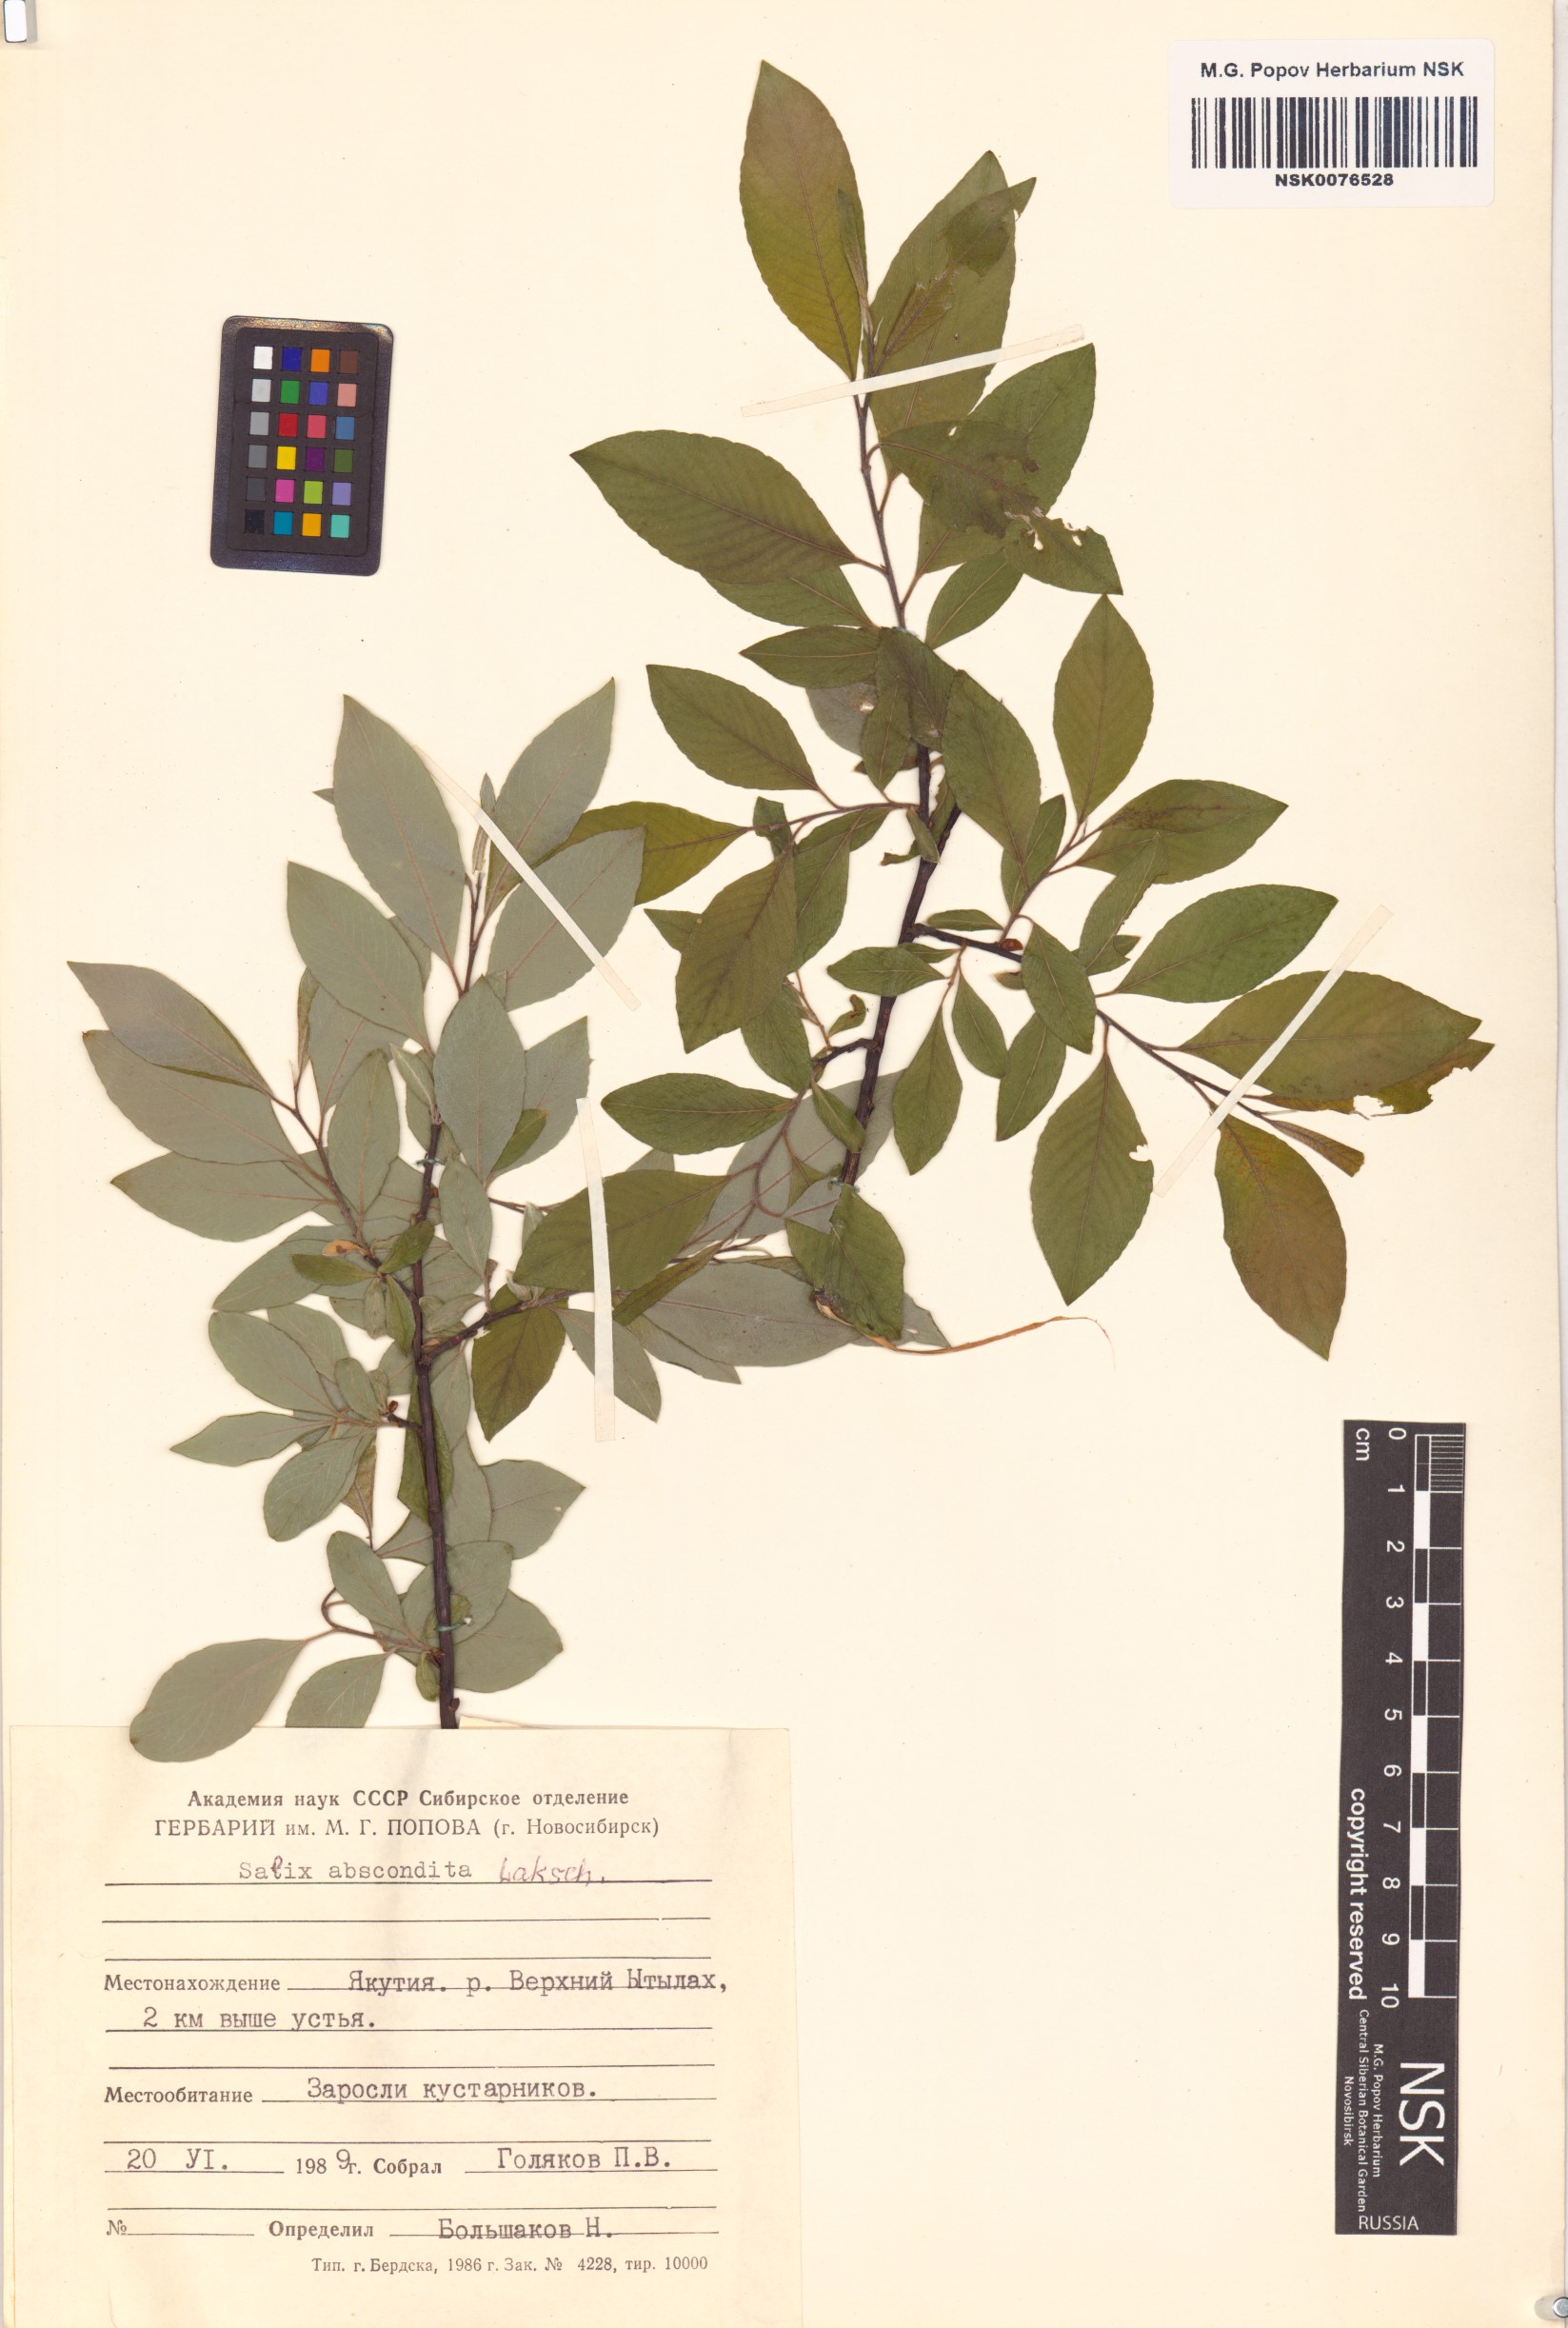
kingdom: Plantae
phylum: Tracheophyta
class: Magnoliopsida
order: Malpighiales
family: Salicaceae
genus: Salix
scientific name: Salix abscondita
